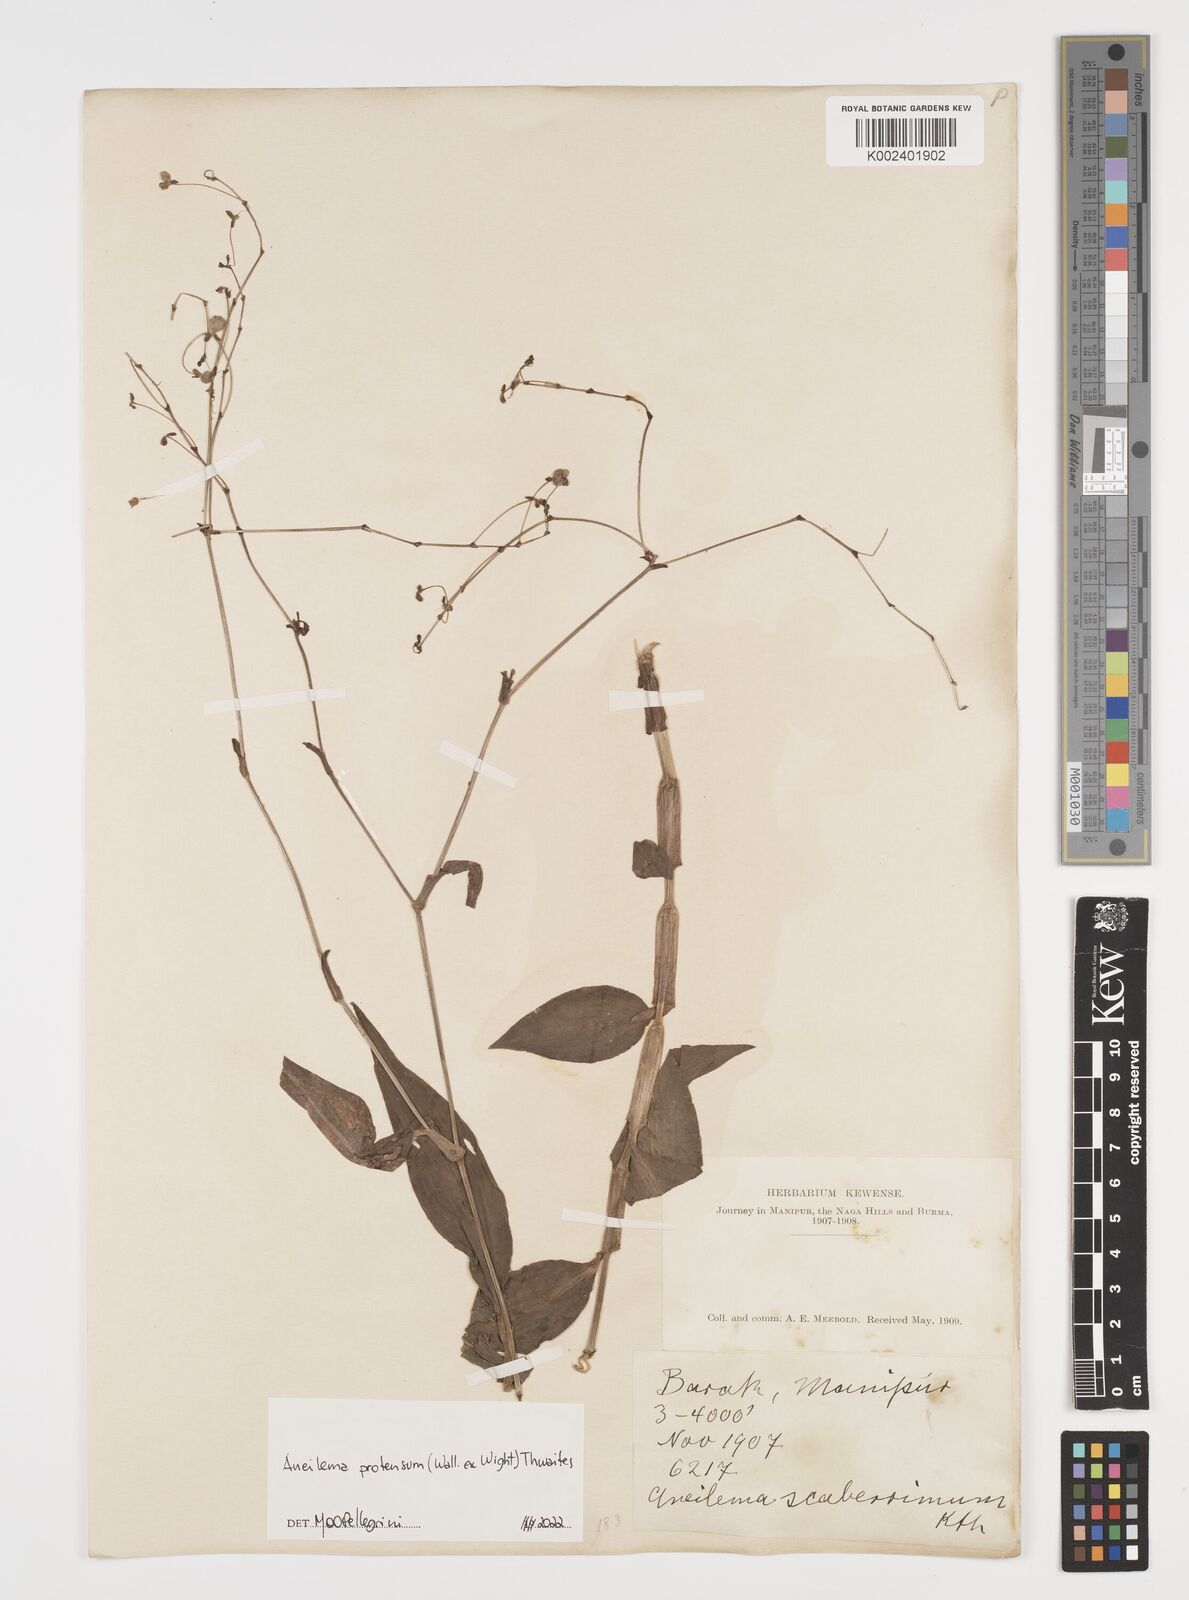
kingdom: Plantae
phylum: Tracheophyta
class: Liliopsida
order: Commelinales
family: Commelinaceae
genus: Rhopalephora
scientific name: Rhopalephora
